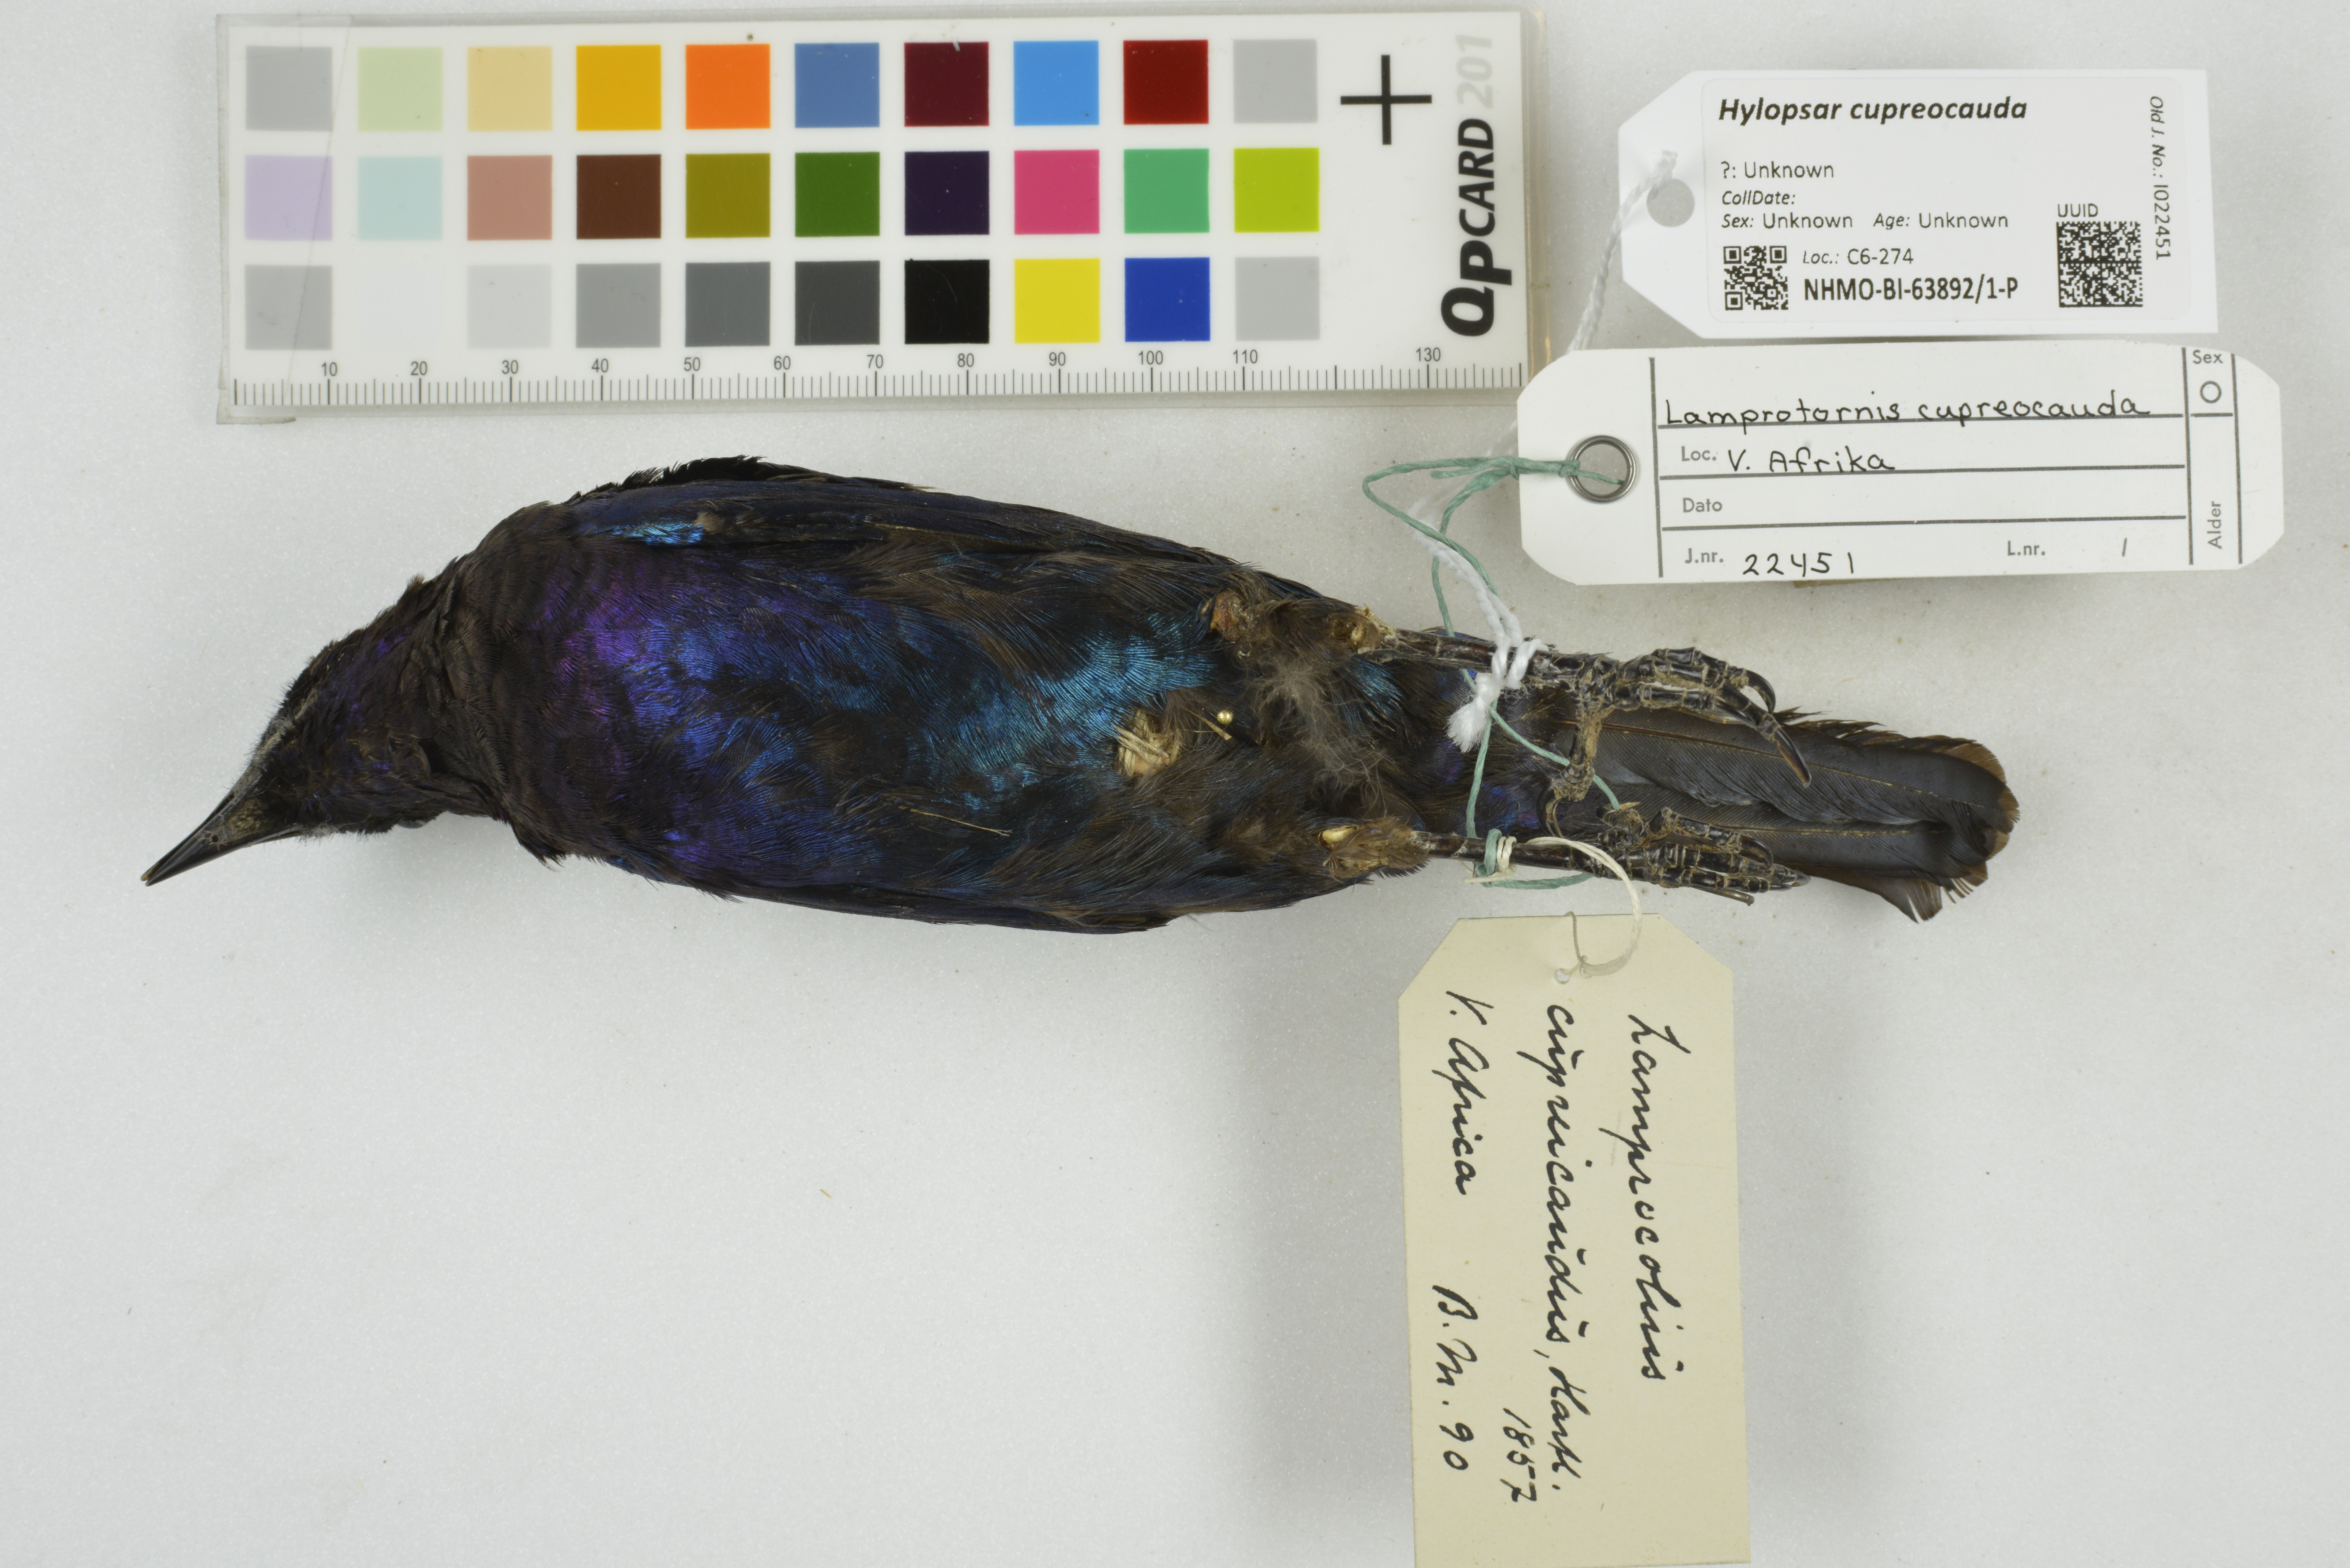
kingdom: Animalia
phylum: Chordata
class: Aves
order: Passeriformes
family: Sturnidae
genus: Hylopsar
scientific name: Hylopsar cupreocauda
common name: Copper-tailed starling
